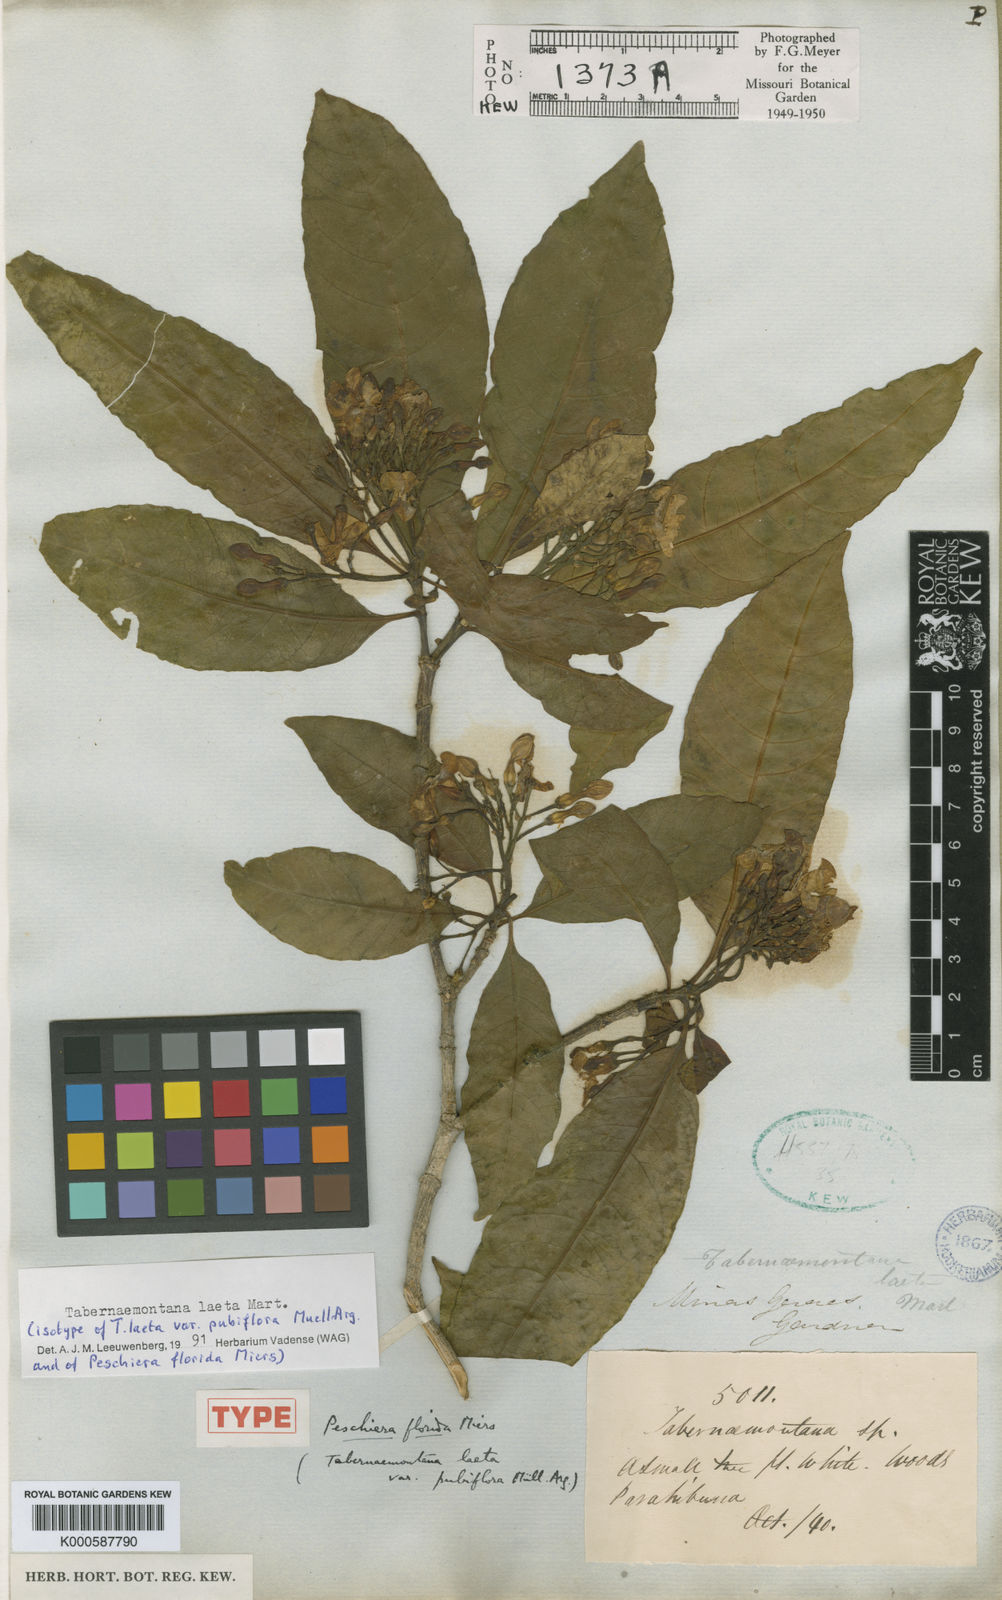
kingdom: Plantae
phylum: Tracheophyta
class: Magnoliopsida
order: Gentianales
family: Apocynaceae
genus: Tabernaemontana
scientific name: Tabernaemontana laeta
